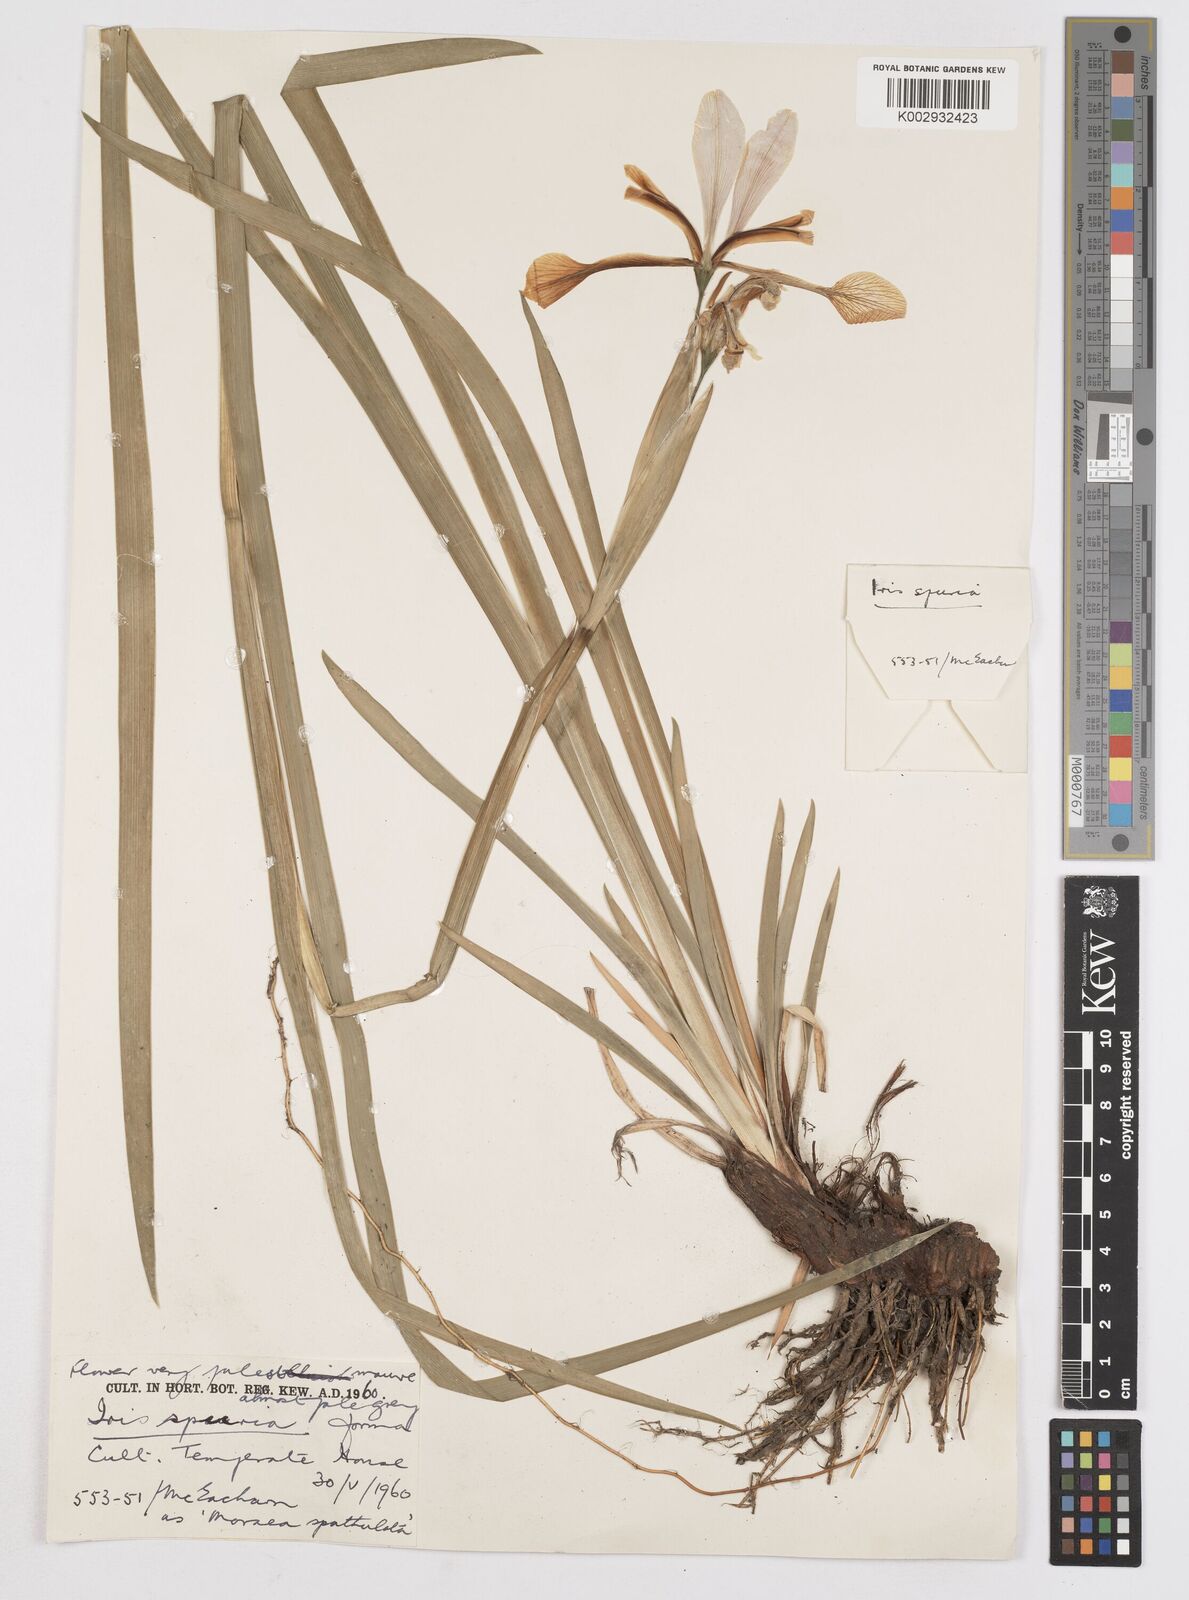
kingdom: Plantae
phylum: Tracheophyta
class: Liliopsida
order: Asparagales
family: Iridaceae
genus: Iris
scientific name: Iris spuria
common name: Blue iris
